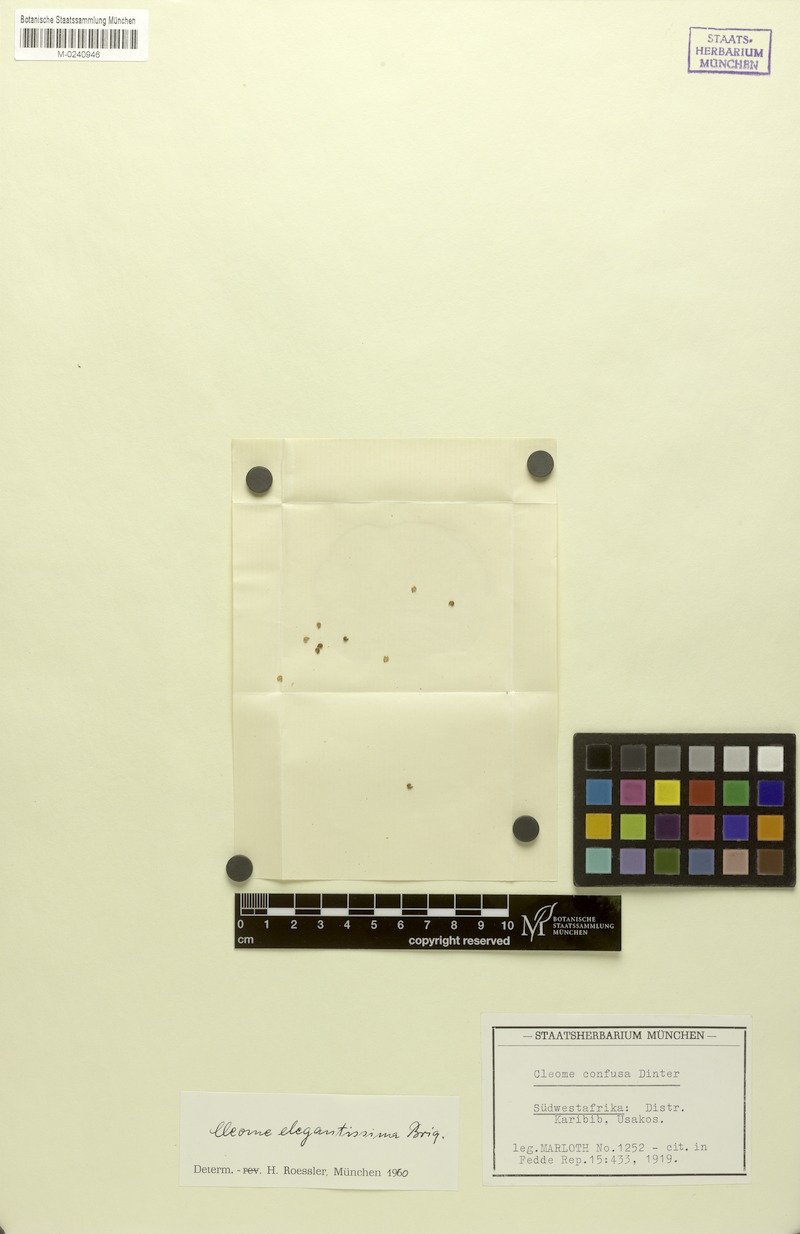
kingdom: Plantae
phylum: Tracheophyta
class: Magnoliopsida
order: Brassicales
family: Cleomaceae
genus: Sieruela
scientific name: Sieruela elegantissima
